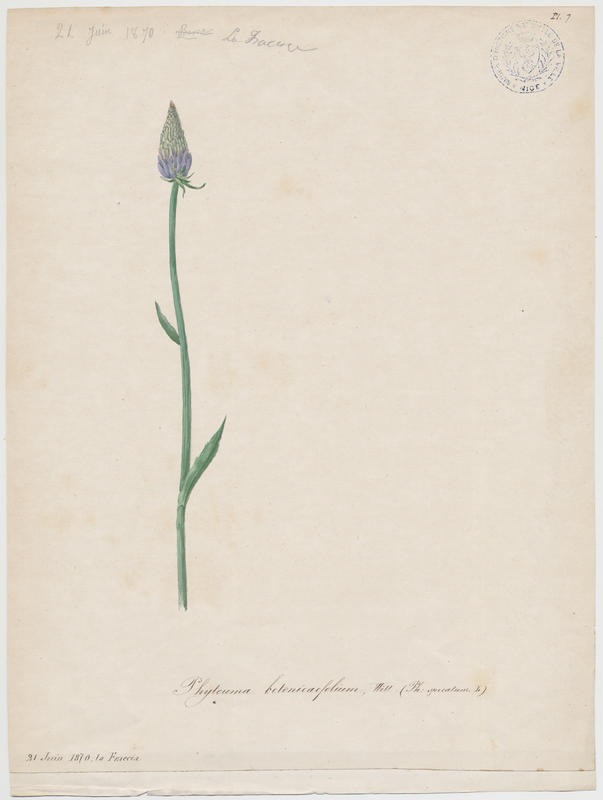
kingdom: Plantae
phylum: Tracheophyta
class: Magnoliopsida
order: Asterales
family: Campanulaceae
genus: Phyteuma
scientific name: Phyteuma betonicifolium
